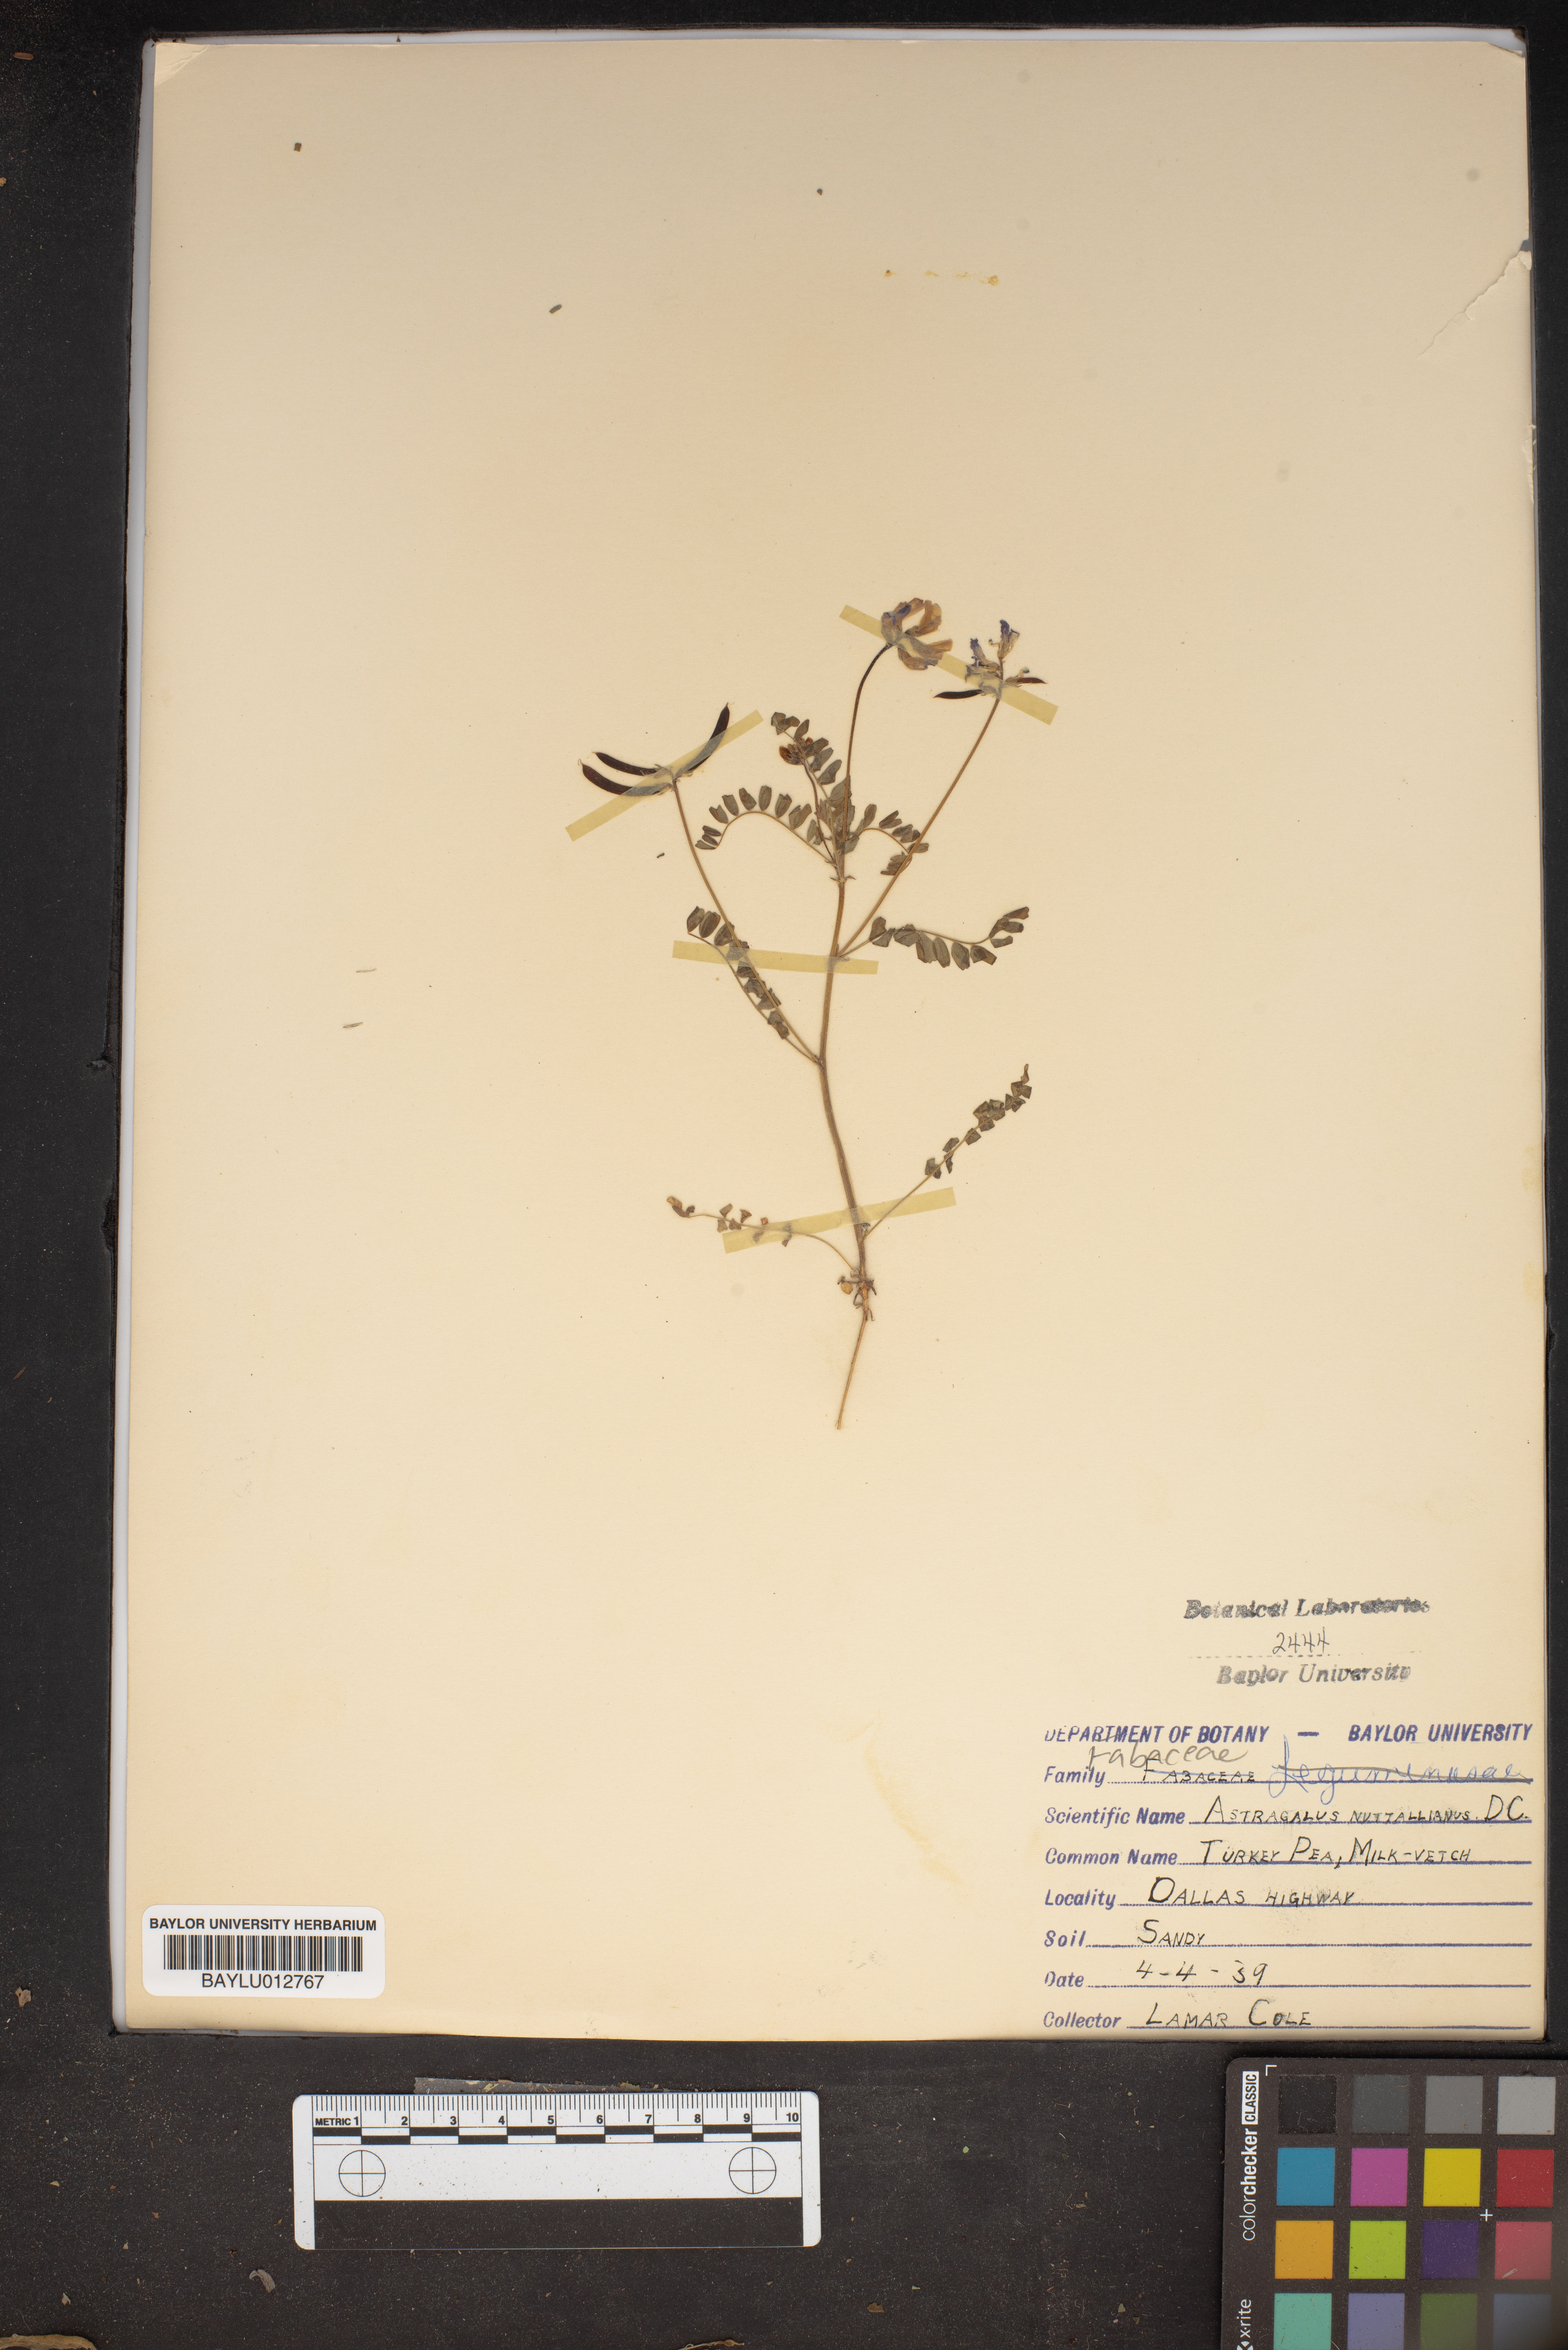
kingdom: Plantae
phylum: Tracheophyta
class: Magnoliopsida
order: Fabales
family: Fabaceae
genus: Astragalus
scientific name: Astragalus nuttallianus
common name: Smallflowered milkvetch
